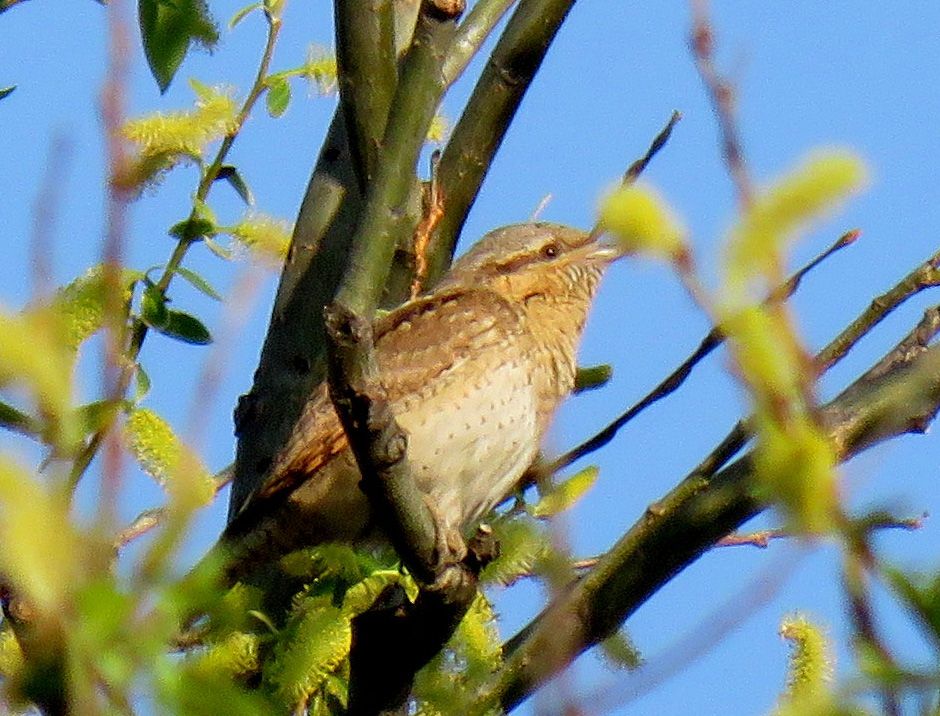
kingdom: Animalia
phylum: Chordata
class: Aves
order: Piciformes
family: Picidae
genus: Jynx
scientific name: Jynx torquilla
